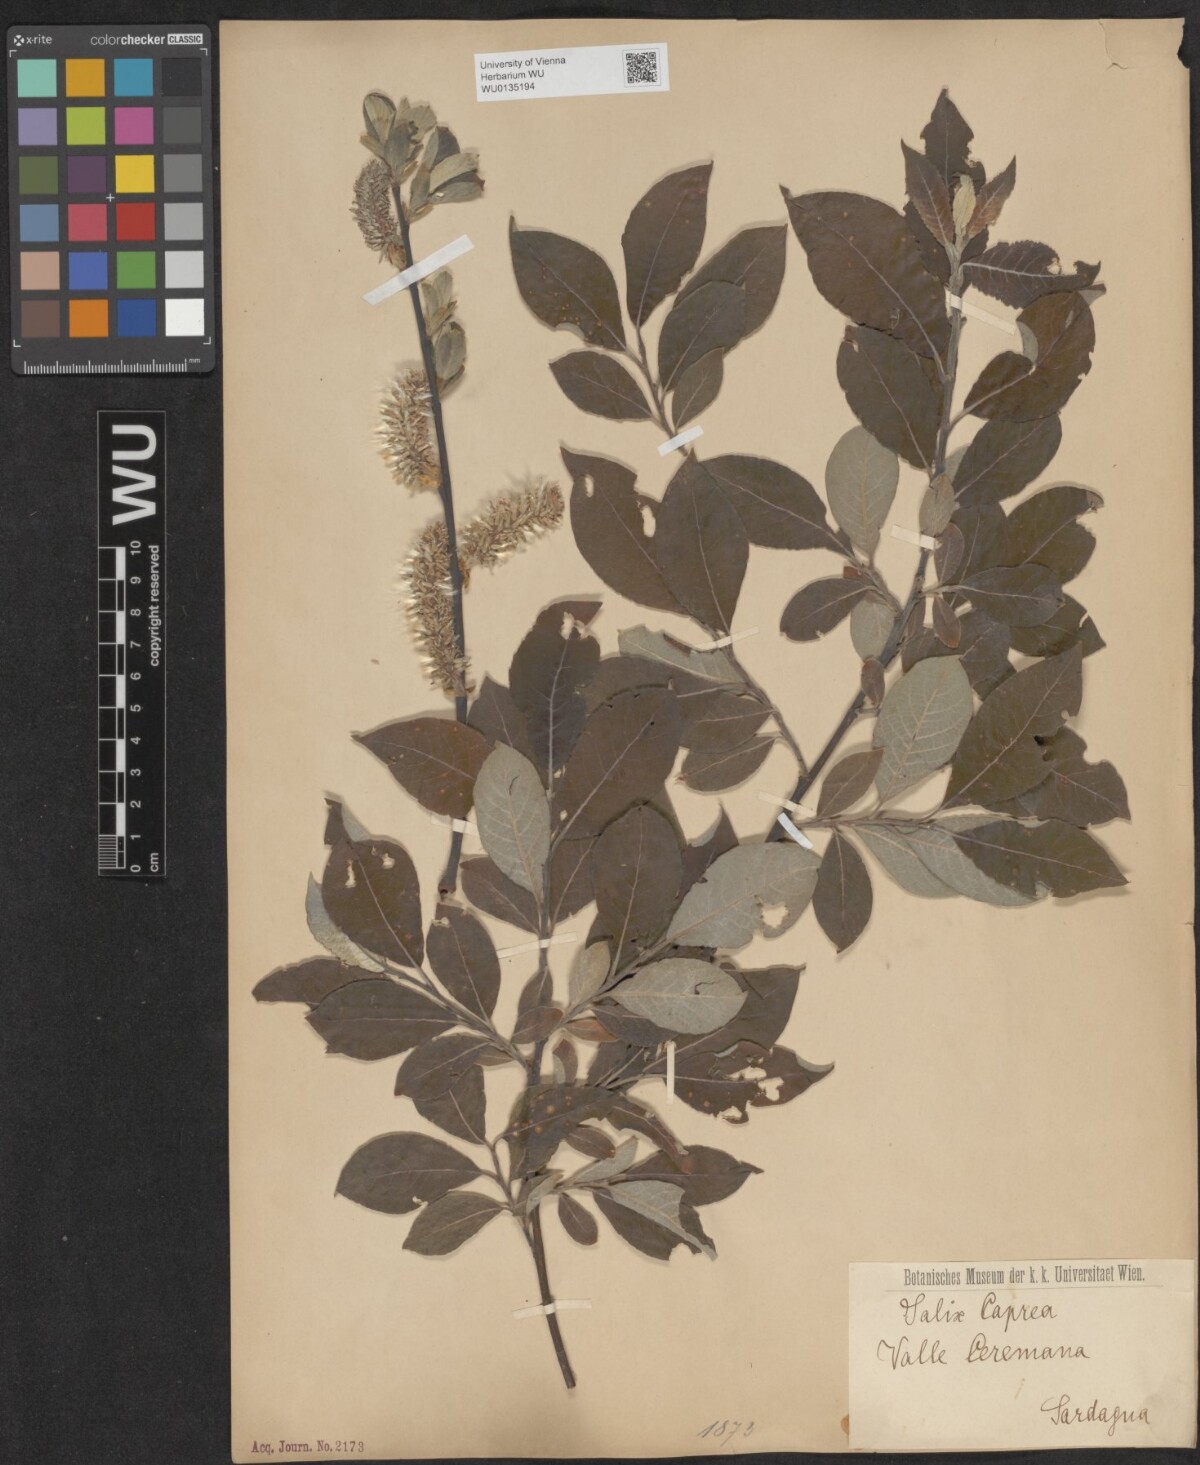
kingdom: Plantae
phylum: Tracheophyta
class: Magnoliopsida
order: Malpighiales
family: Salicaceae
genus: Salix
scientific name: Salix caprea
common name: Goat willow
